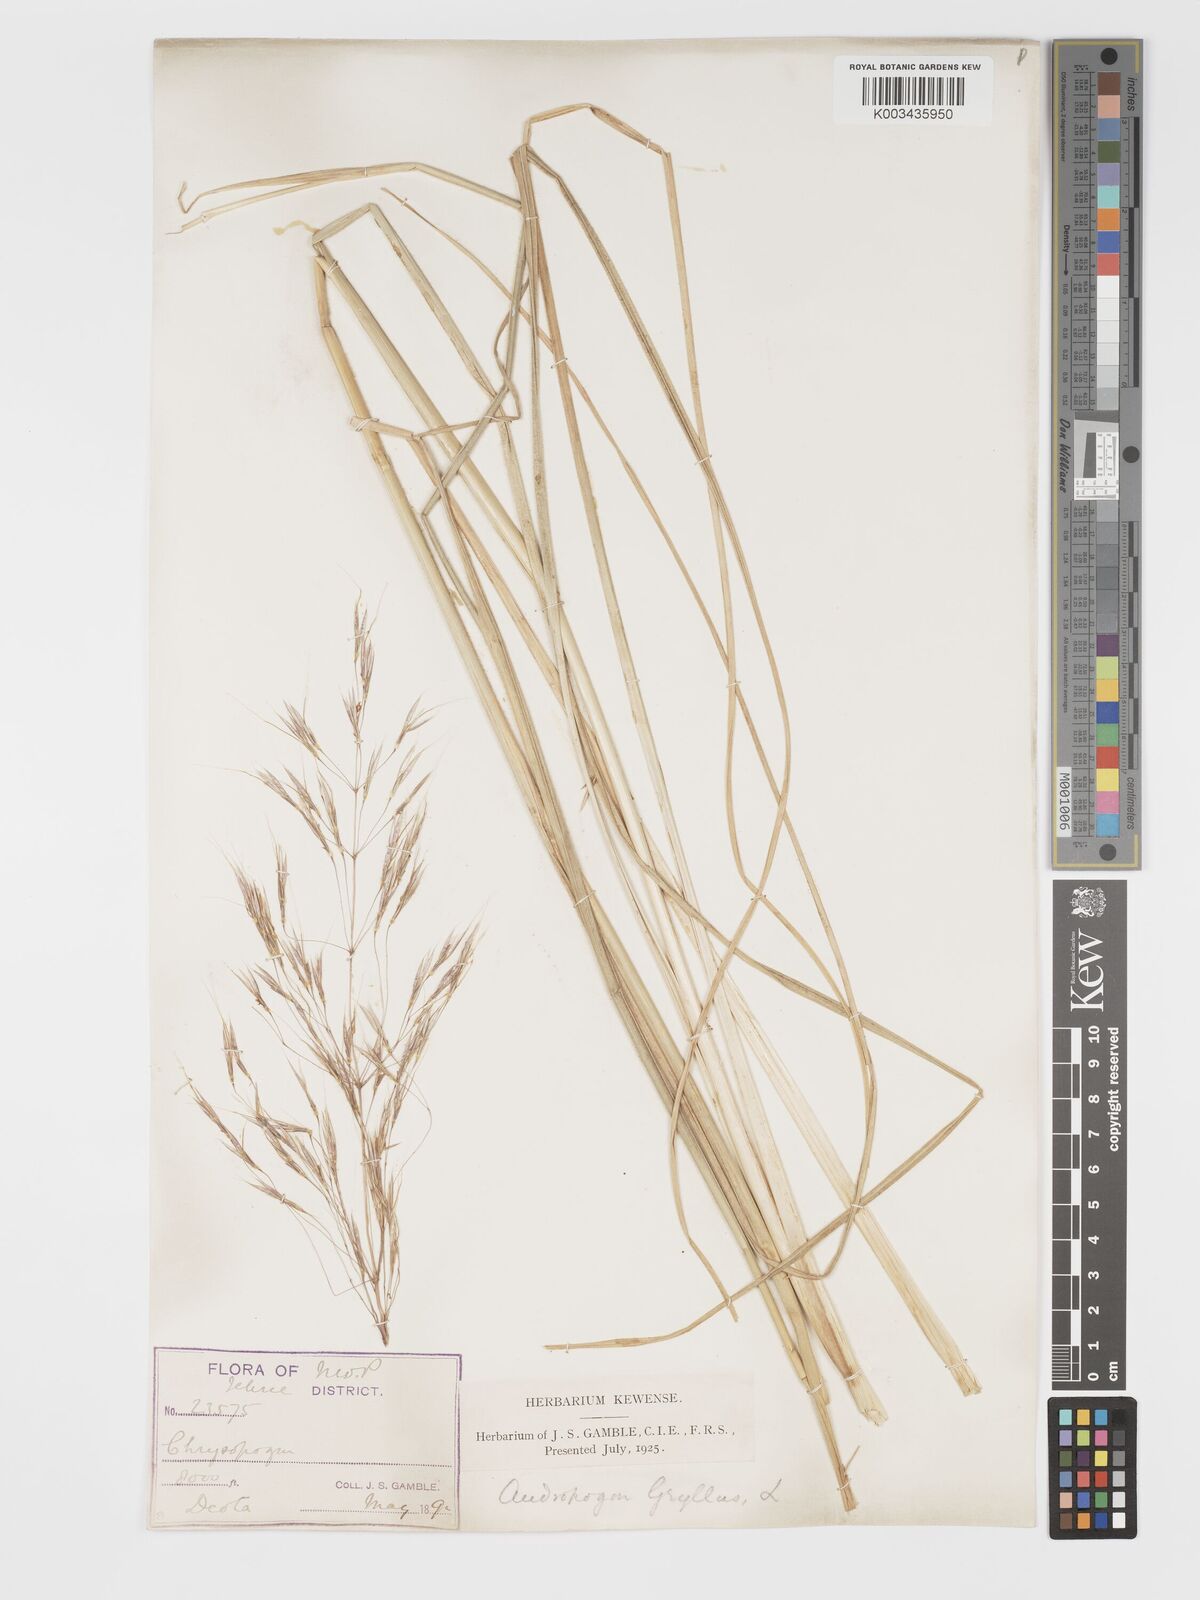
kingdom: Plantae
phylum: Tracheophyta
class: Liliopsida
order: Poales
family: Poaceae
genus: Chrysopogon
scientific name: Chrysopogon gryllus
